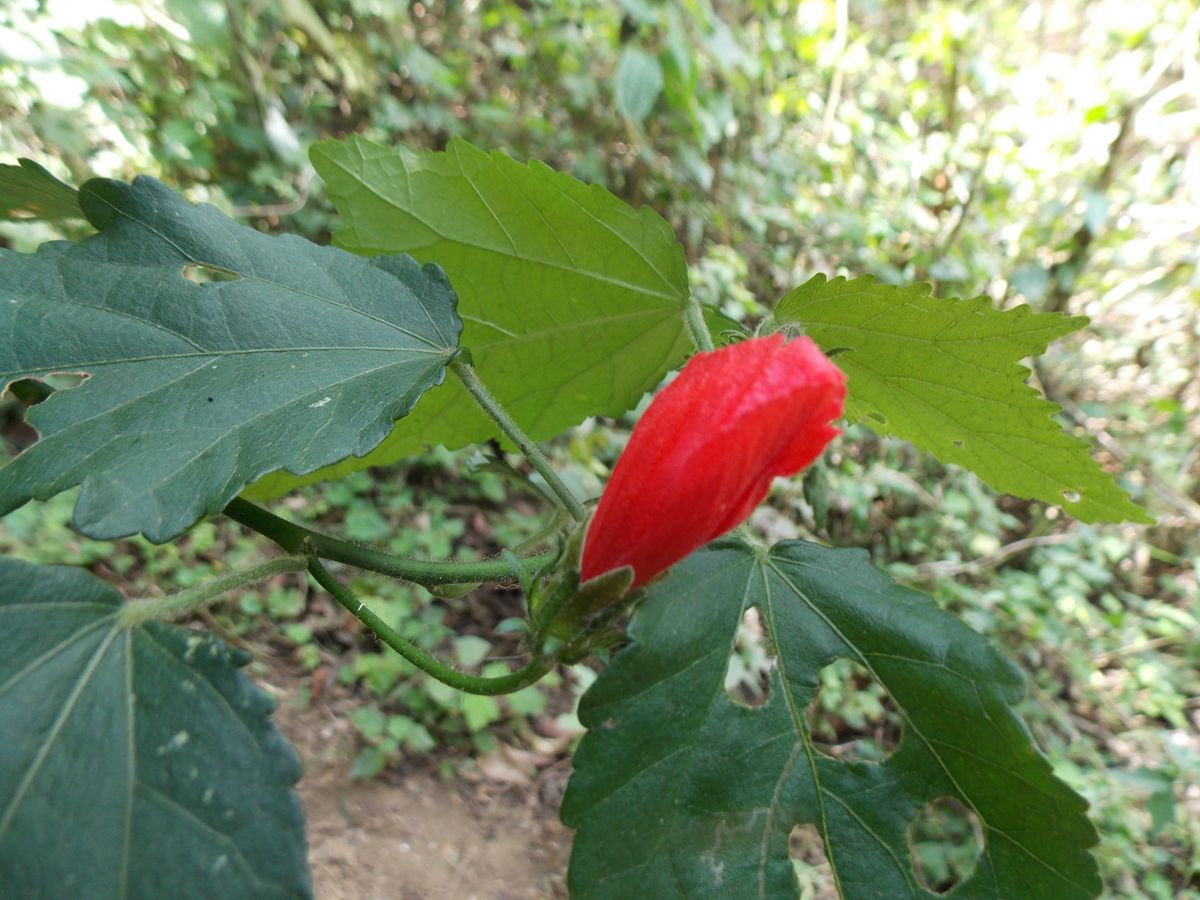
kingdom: Plantae
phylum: Tracheophyta
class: Magnoliopsida
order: Malvales
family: Malvaceae
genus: Malvaviscus
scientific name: Malvaviscus arboreus
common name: Wax mallow
